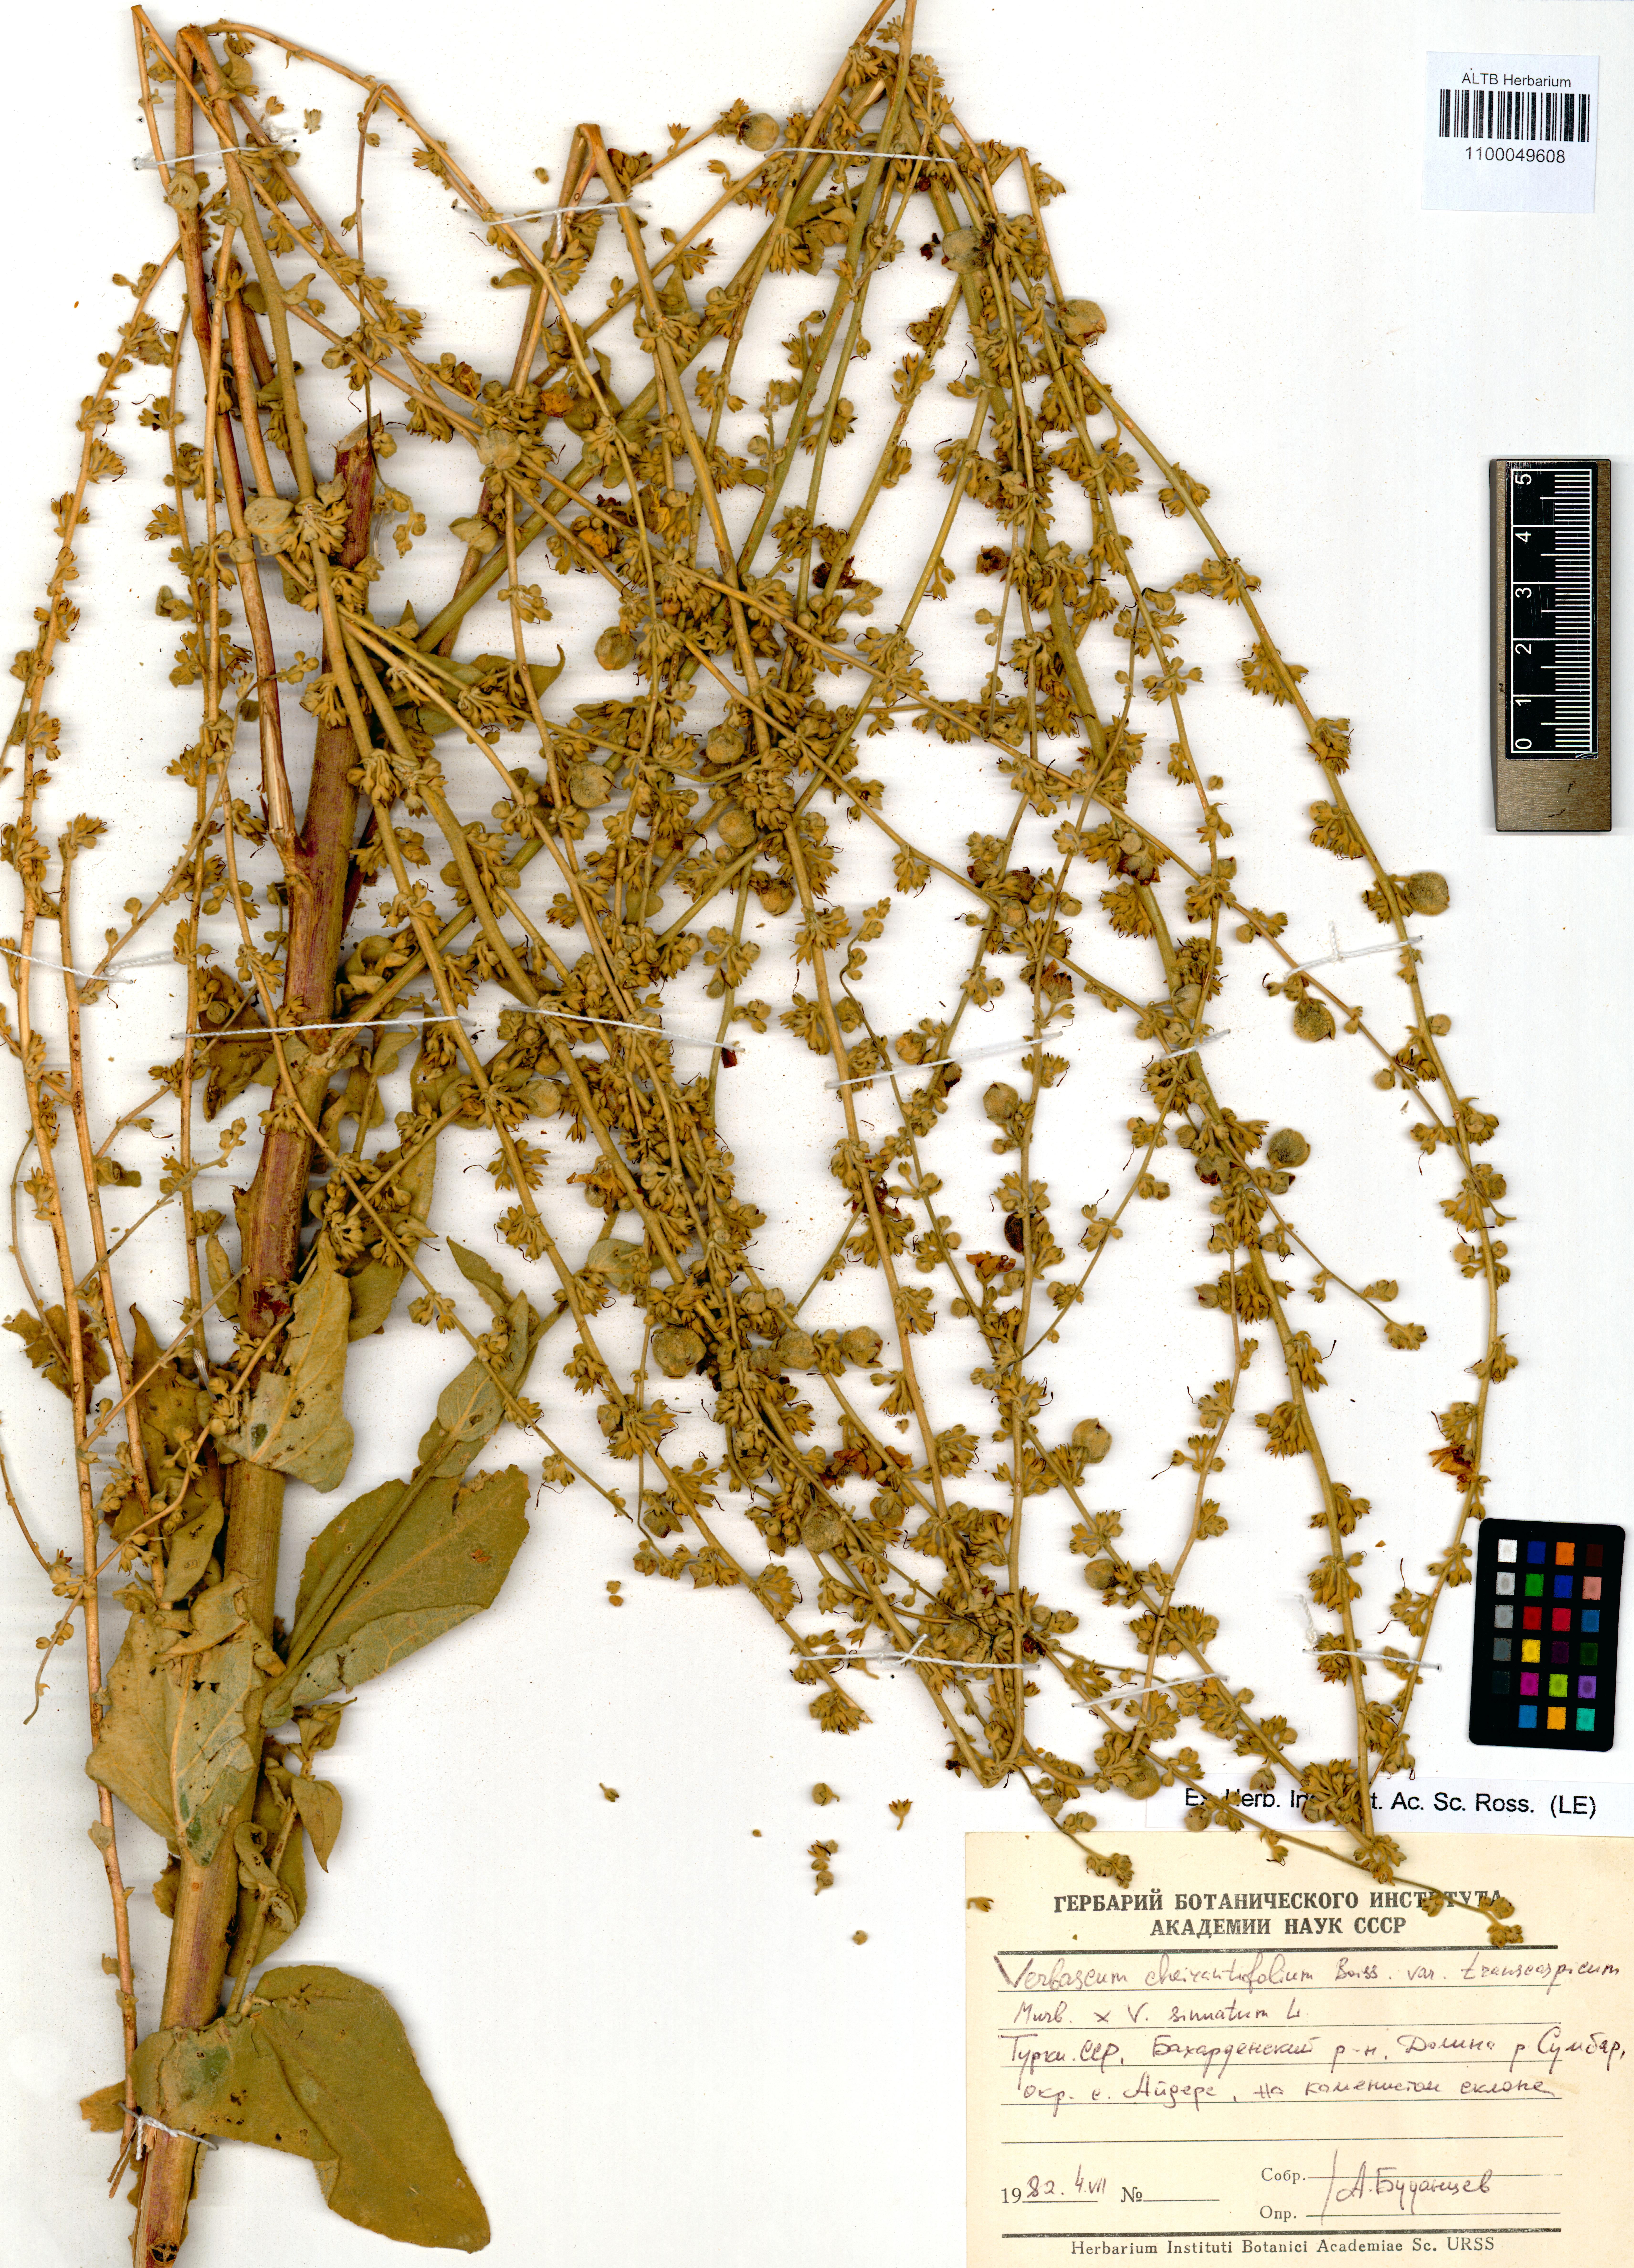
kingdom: Plantae
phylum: Tracheophyta
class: Magnoliopsida
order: Lamiales
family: Scrophulariaceae
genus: Verbascum
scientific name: Verbascum cheiranthifolium
